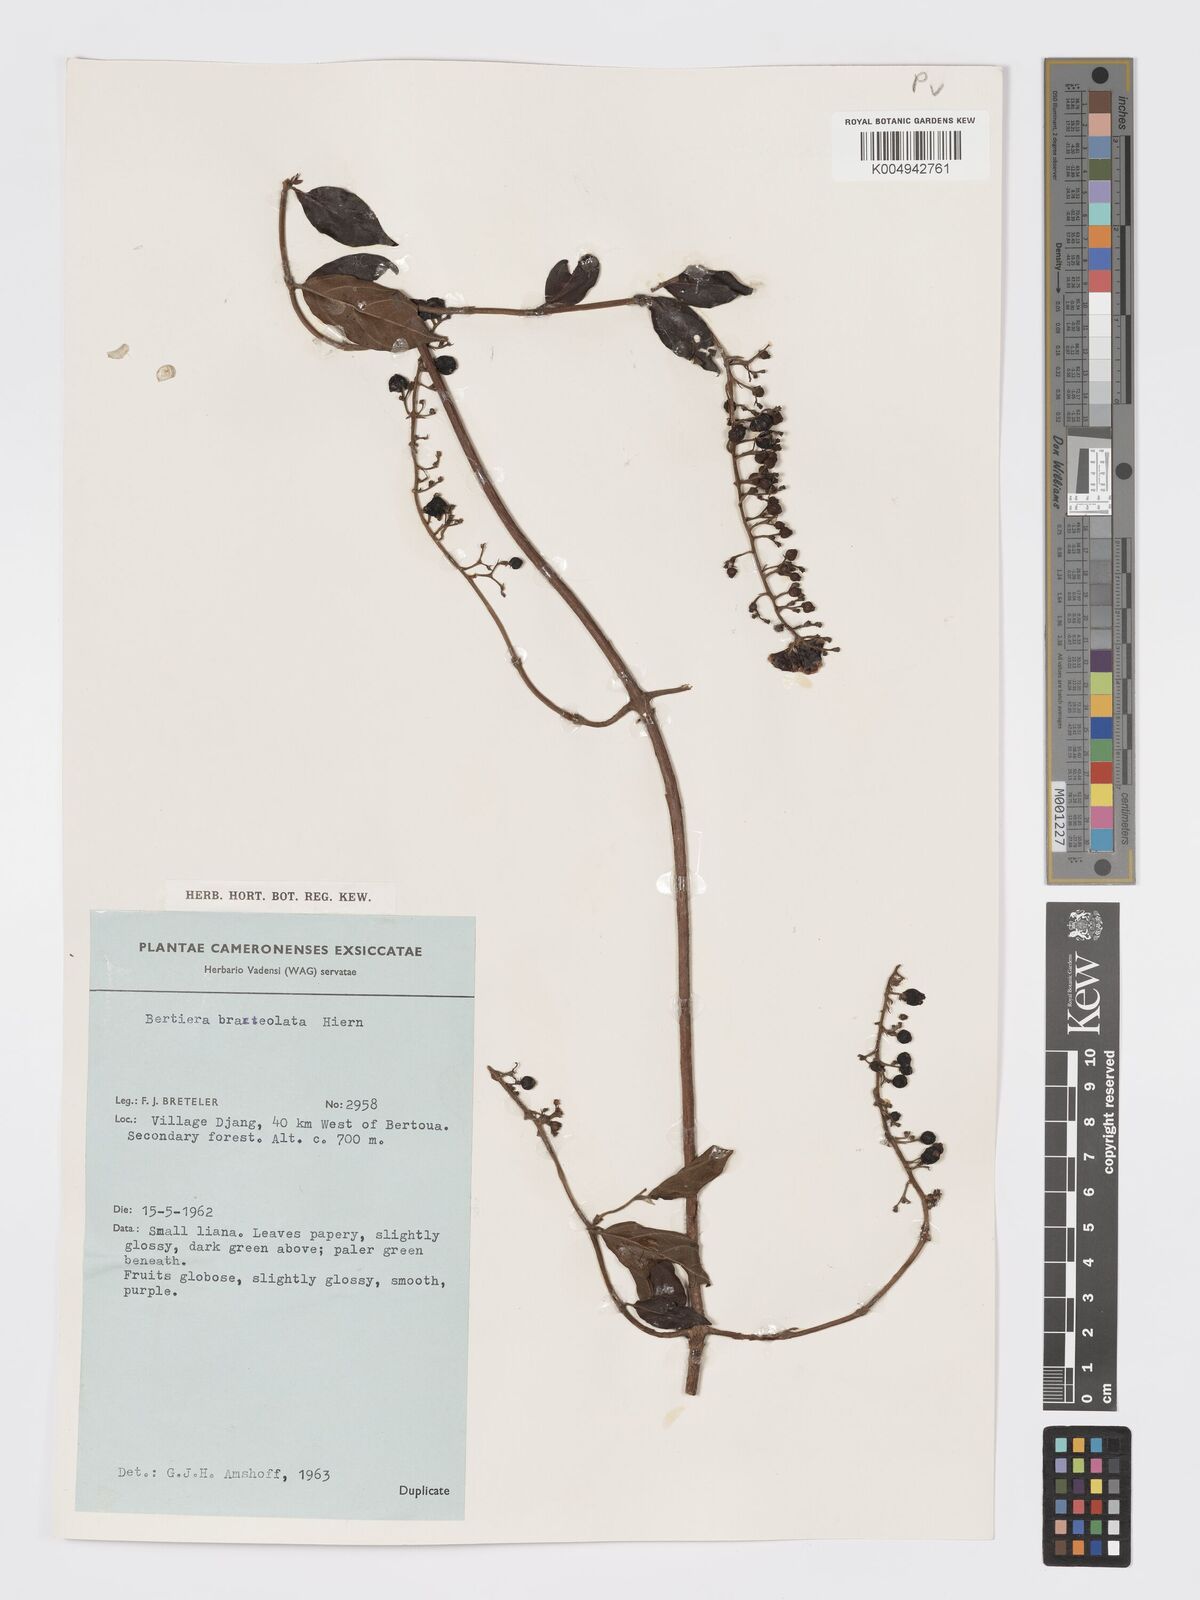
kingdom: Plantae
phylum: Tracheophyta
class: Magnoliopsida
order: Gentianales
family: Rubiaceae
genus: Bertiera
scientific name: Bertiera bracteolata
